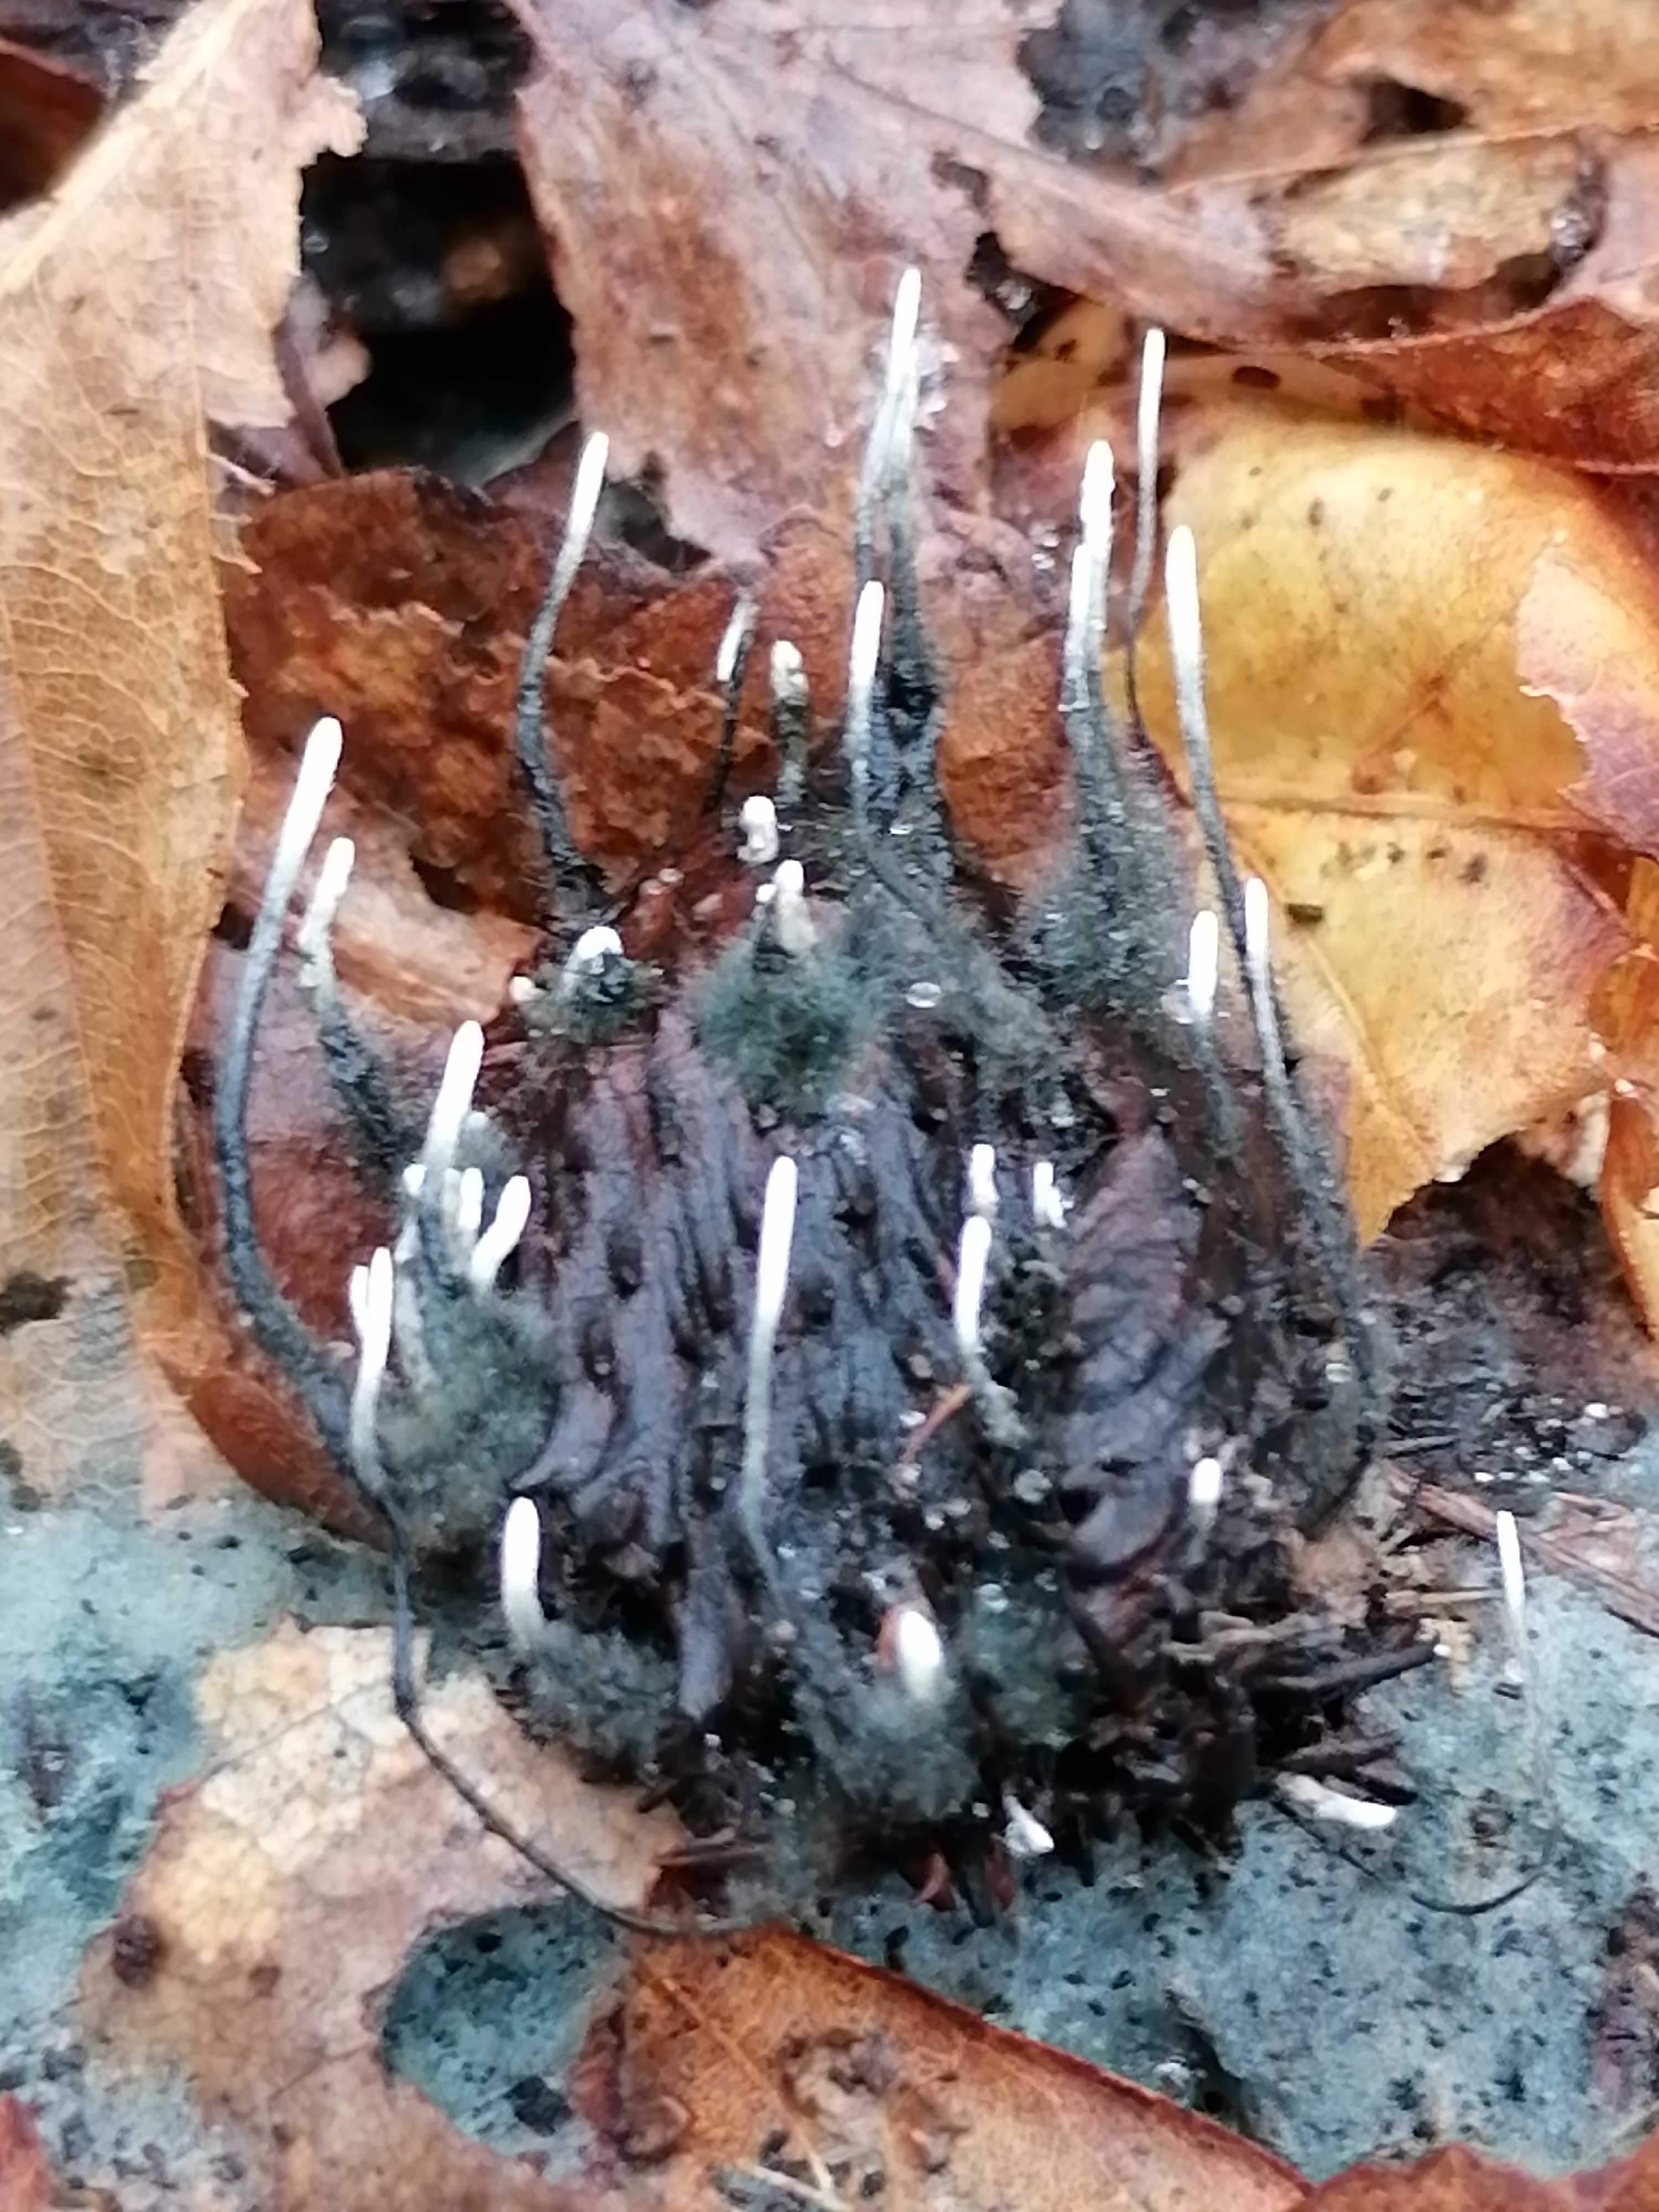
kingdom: Fungi
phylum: Ascomycota
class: Sordariomycetes
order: Xylariales
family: Xylariaceae
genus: Xylaria
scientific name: Xylaria carpophila
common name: bogskål-stødsvamp
